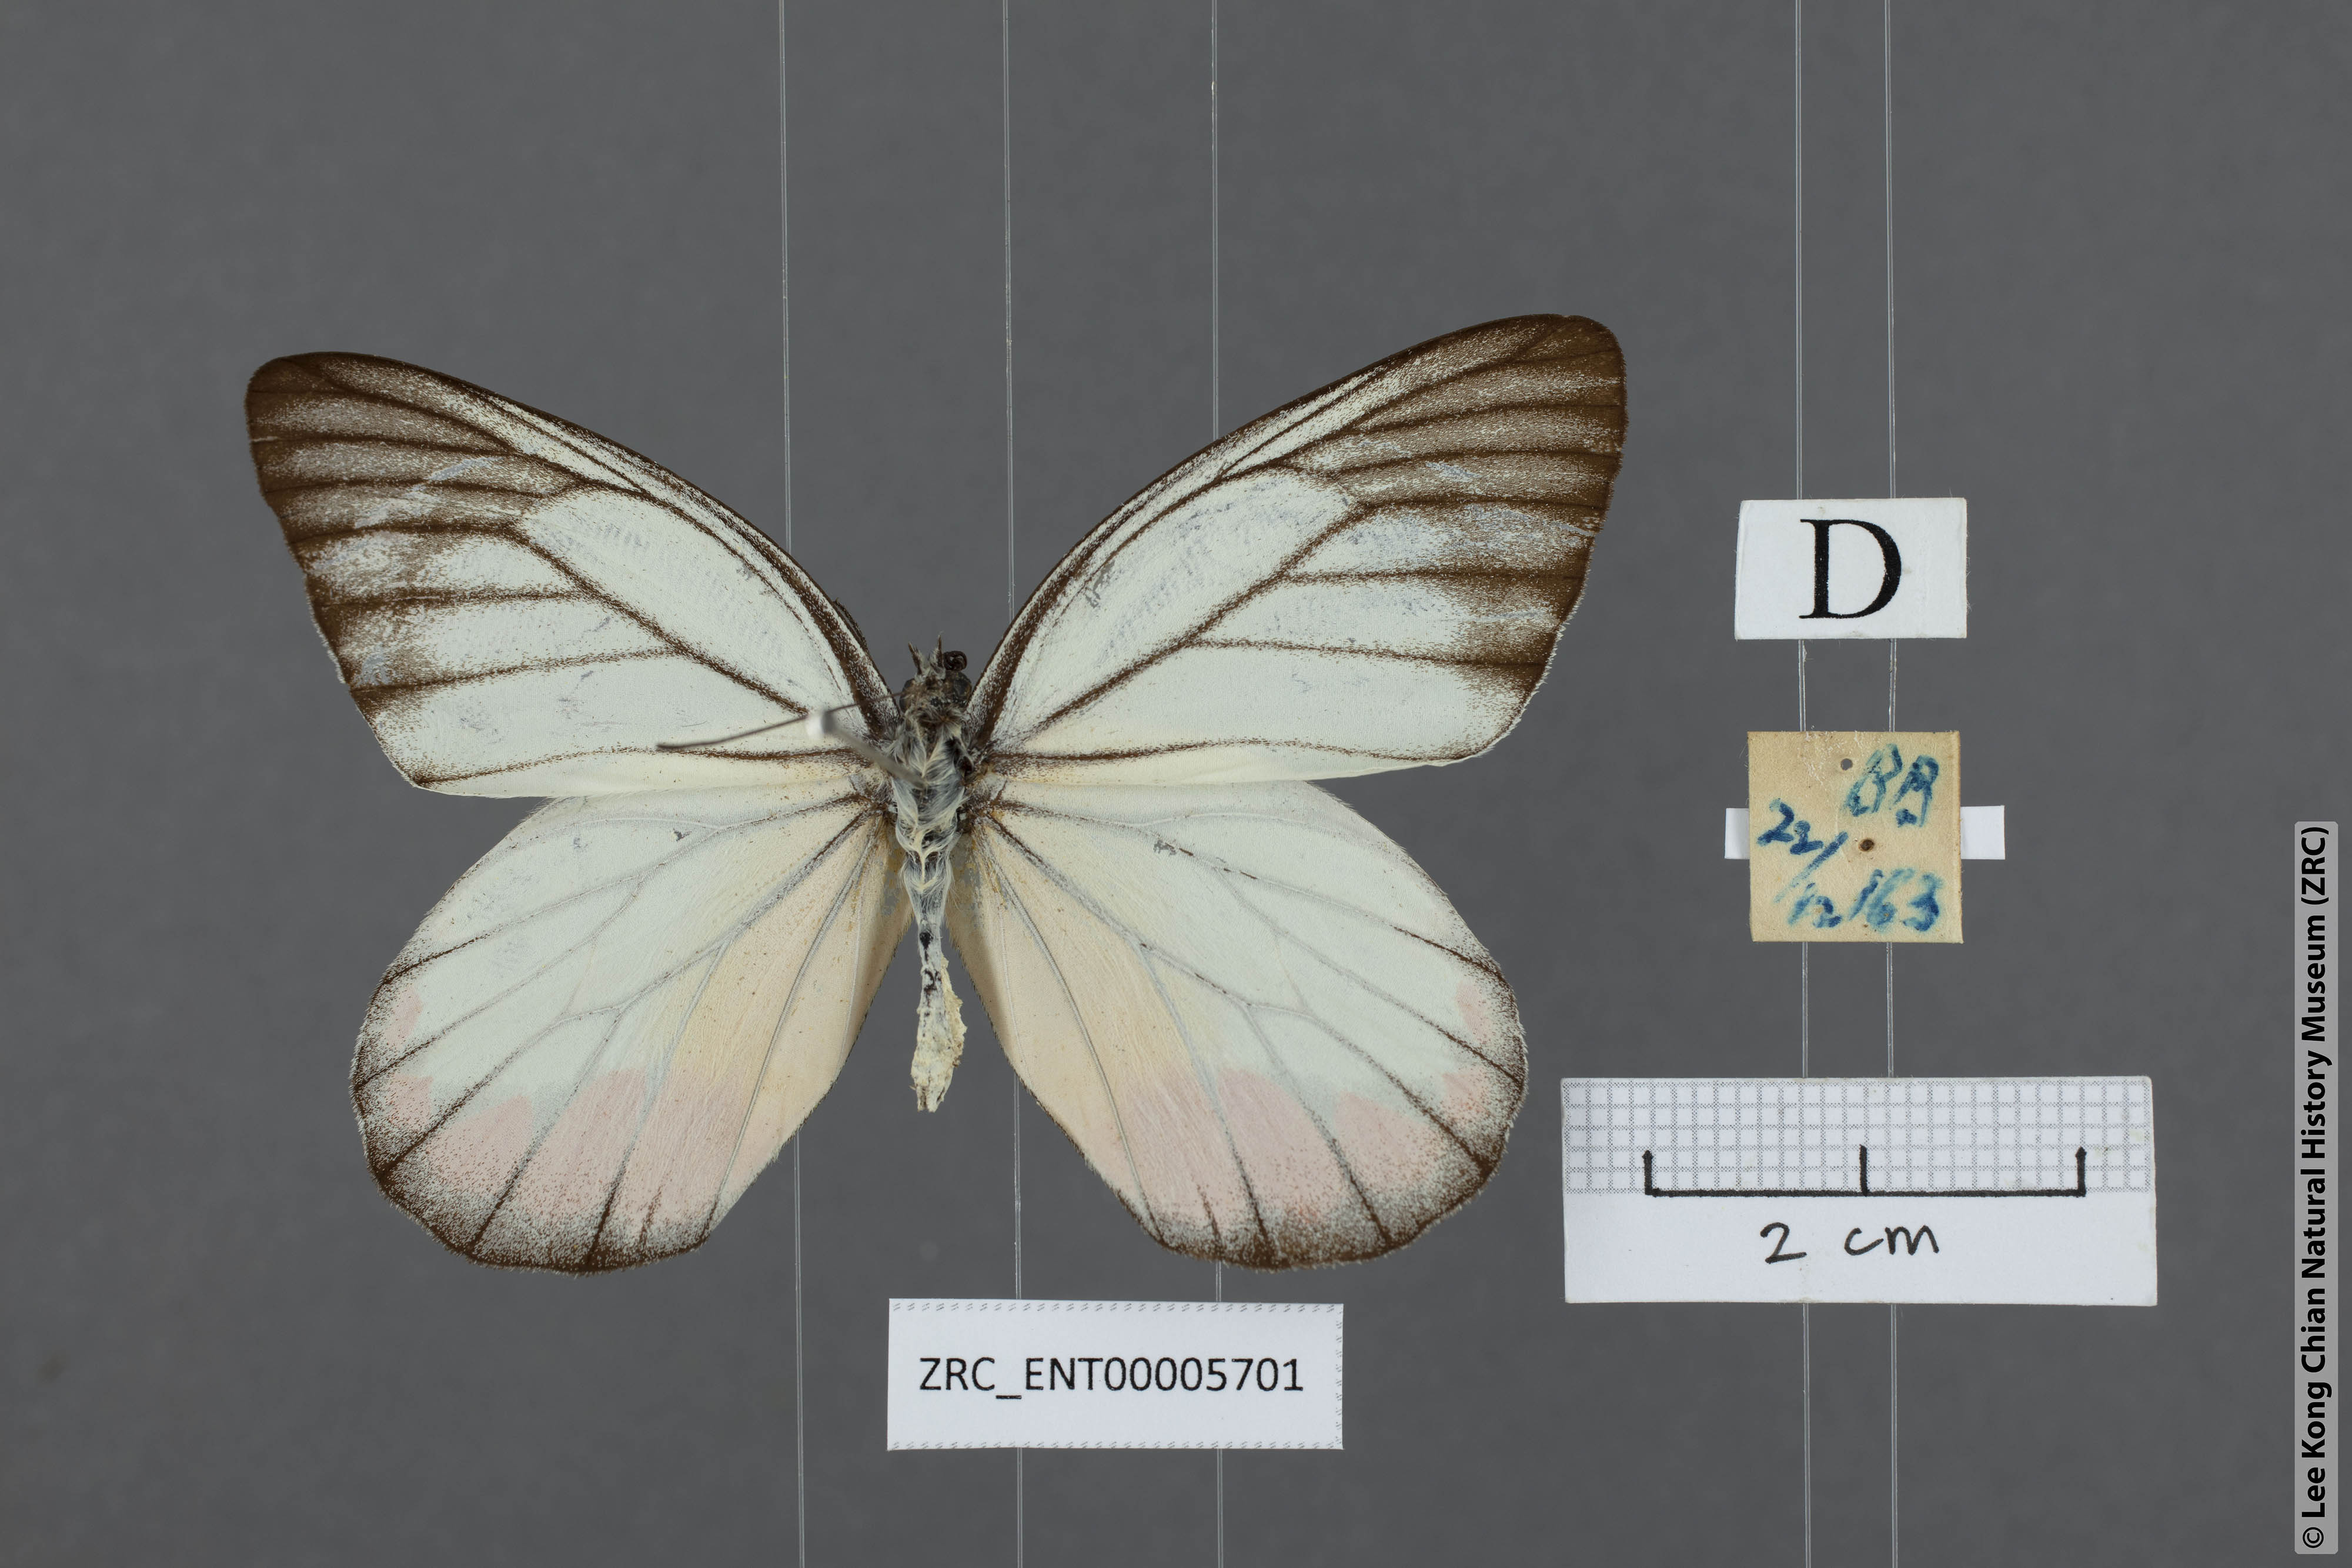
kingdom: Animalia
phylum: Arthropoda
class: Insecta
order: Lepidoptera
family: Pieridae
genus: Delias
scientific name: Delias hyparete
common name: Painted jezebel
